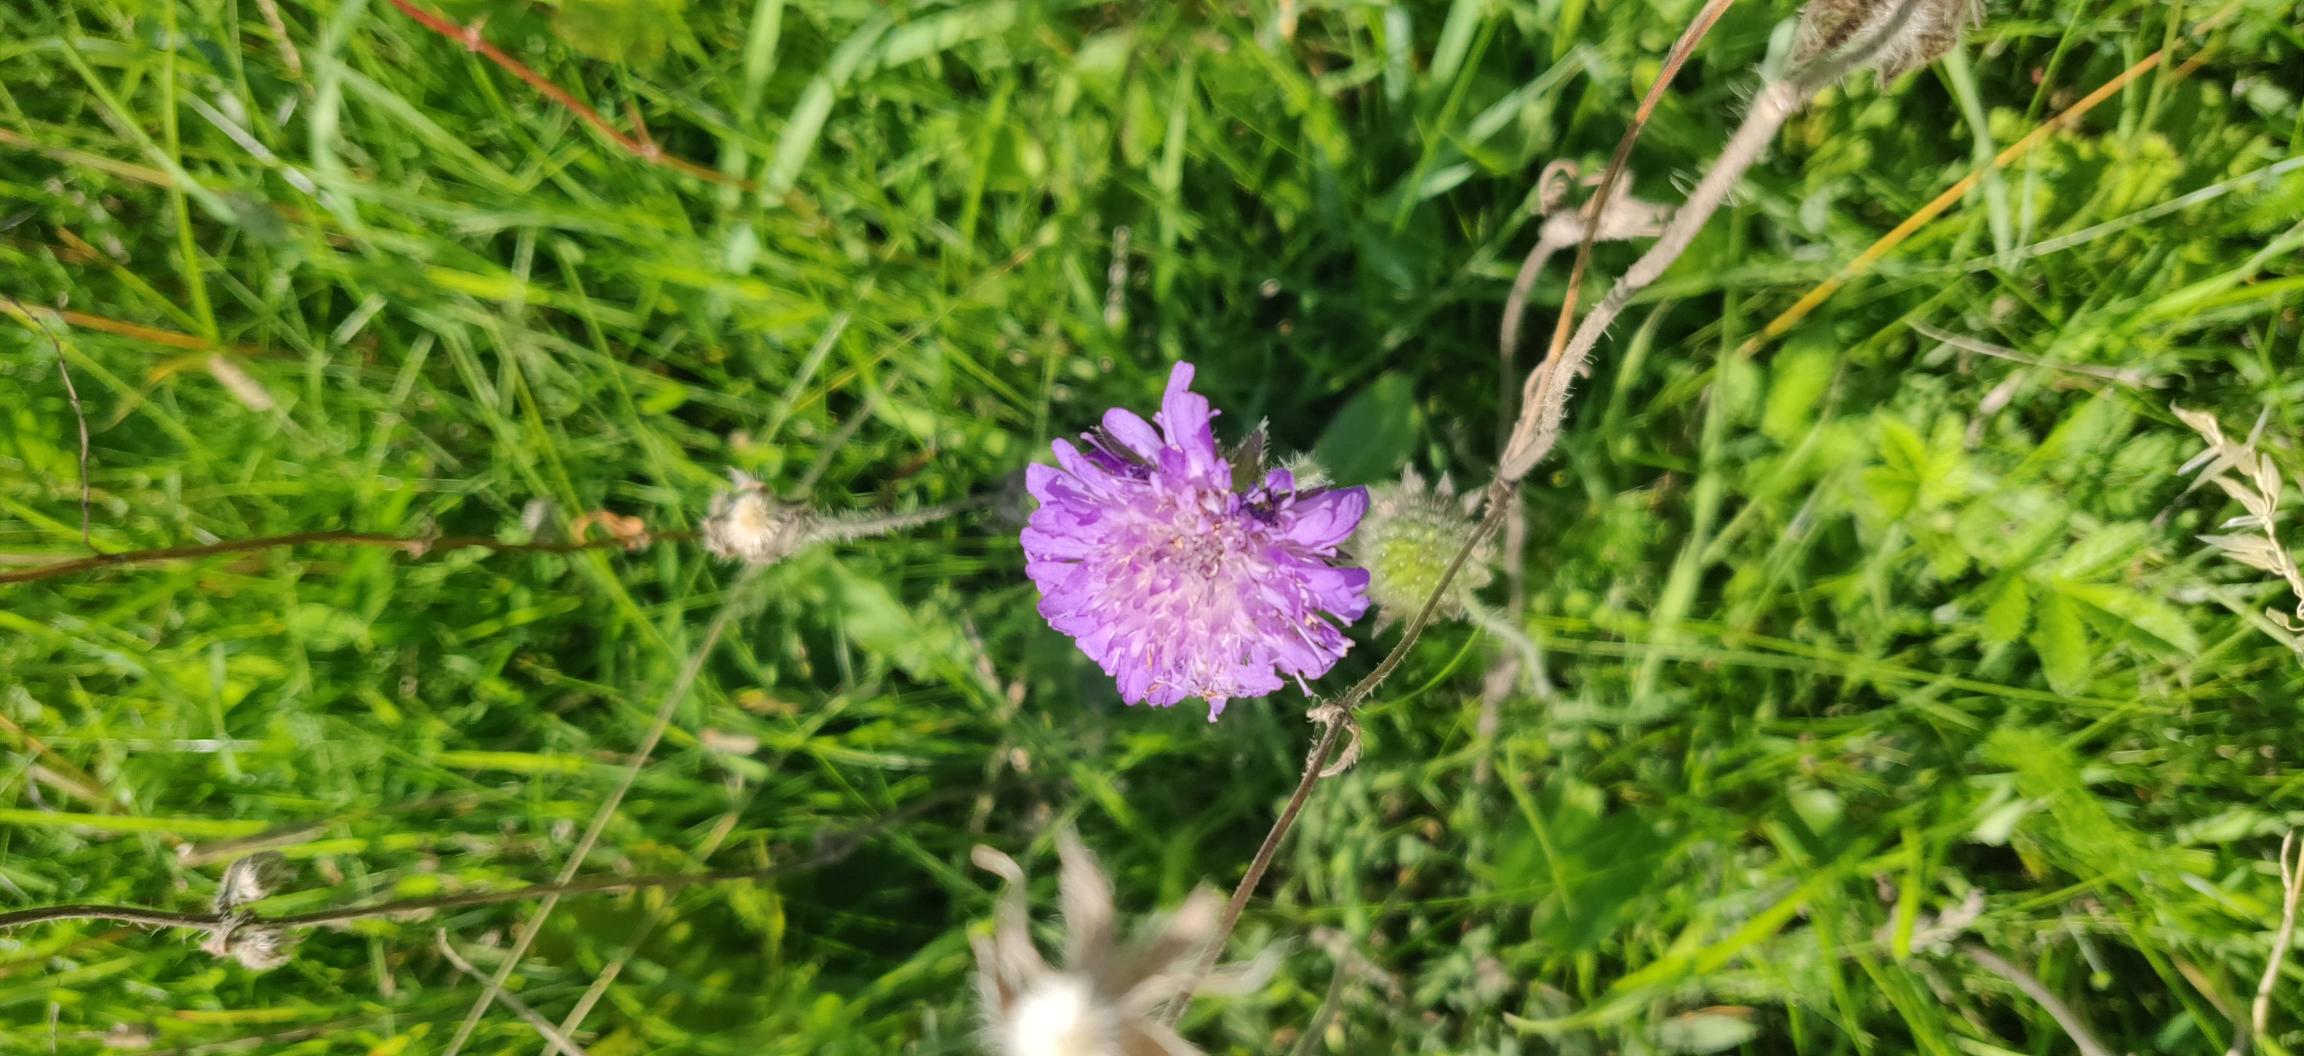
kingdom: Plantae
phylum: Tracheophyta
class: Magnoliopsida
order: Dipsacales
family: Caprifoliaceae
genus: Knautia
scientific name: Knautia arvensis
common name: Blåhat
